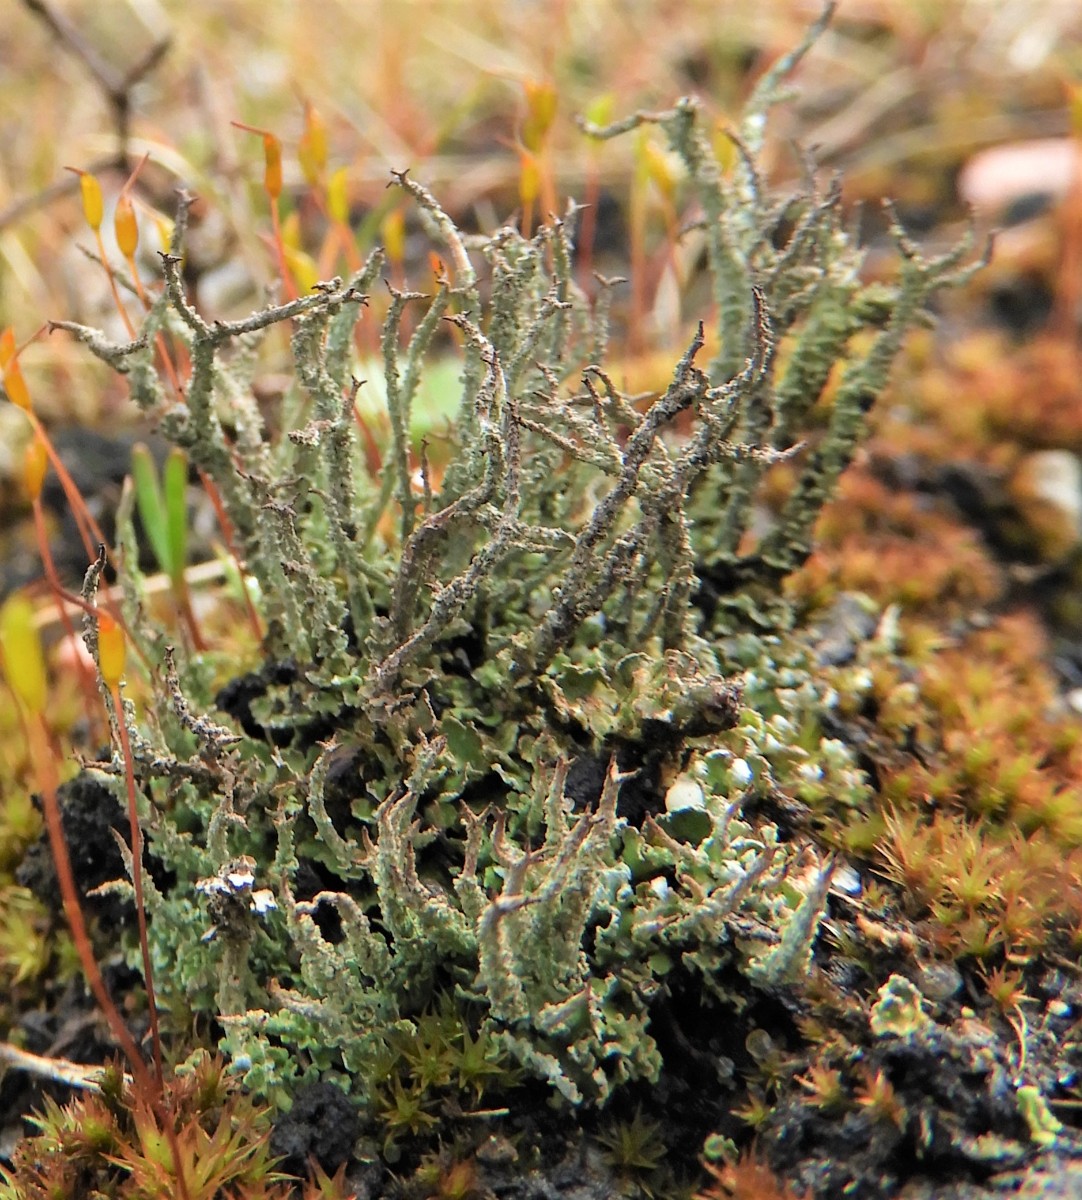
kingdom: Fungi
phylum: Ascomycota
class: Lecanoromycetes
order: Lecanorales
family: Cladoniaceae
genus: Cladonia
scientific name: Cladonia scabriuscula
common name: ru bægerlav
